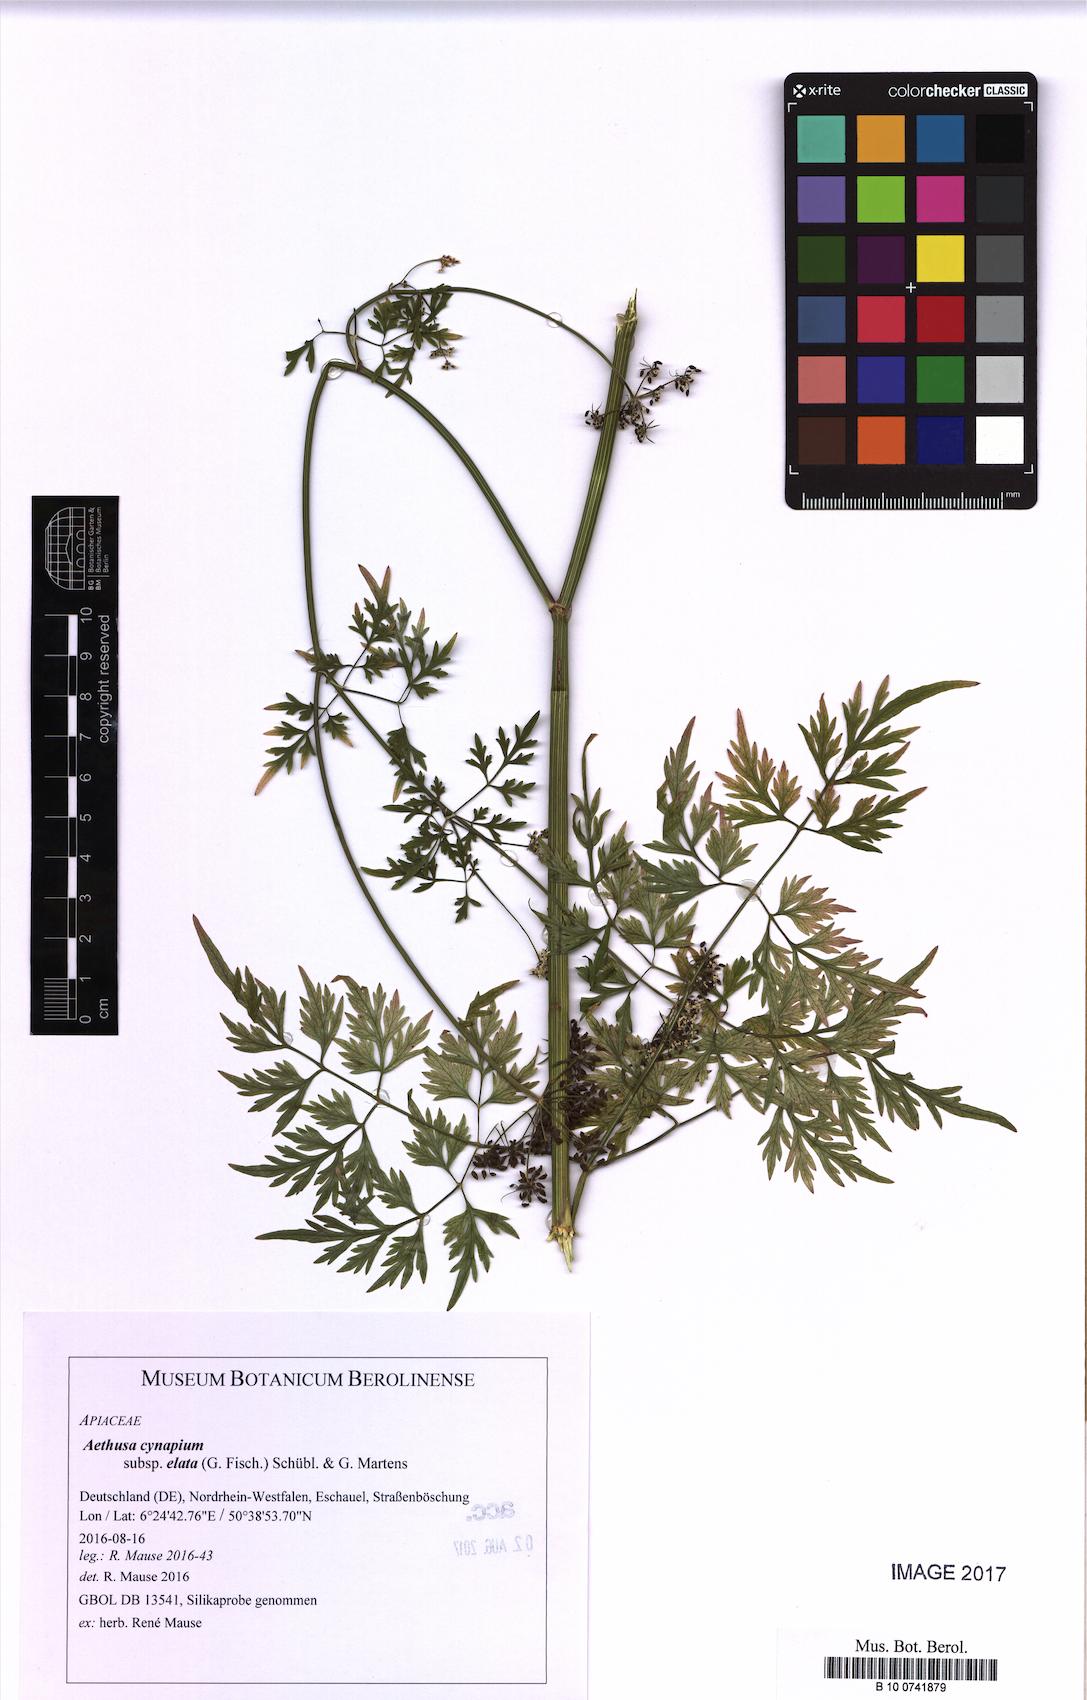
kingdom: Plantae
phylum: Tracheophyta
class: Magnoliopsida
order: Apiales
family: Apiaceae
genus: Aethusa
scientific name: Aethusa cynapium
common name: Fool's parsley
